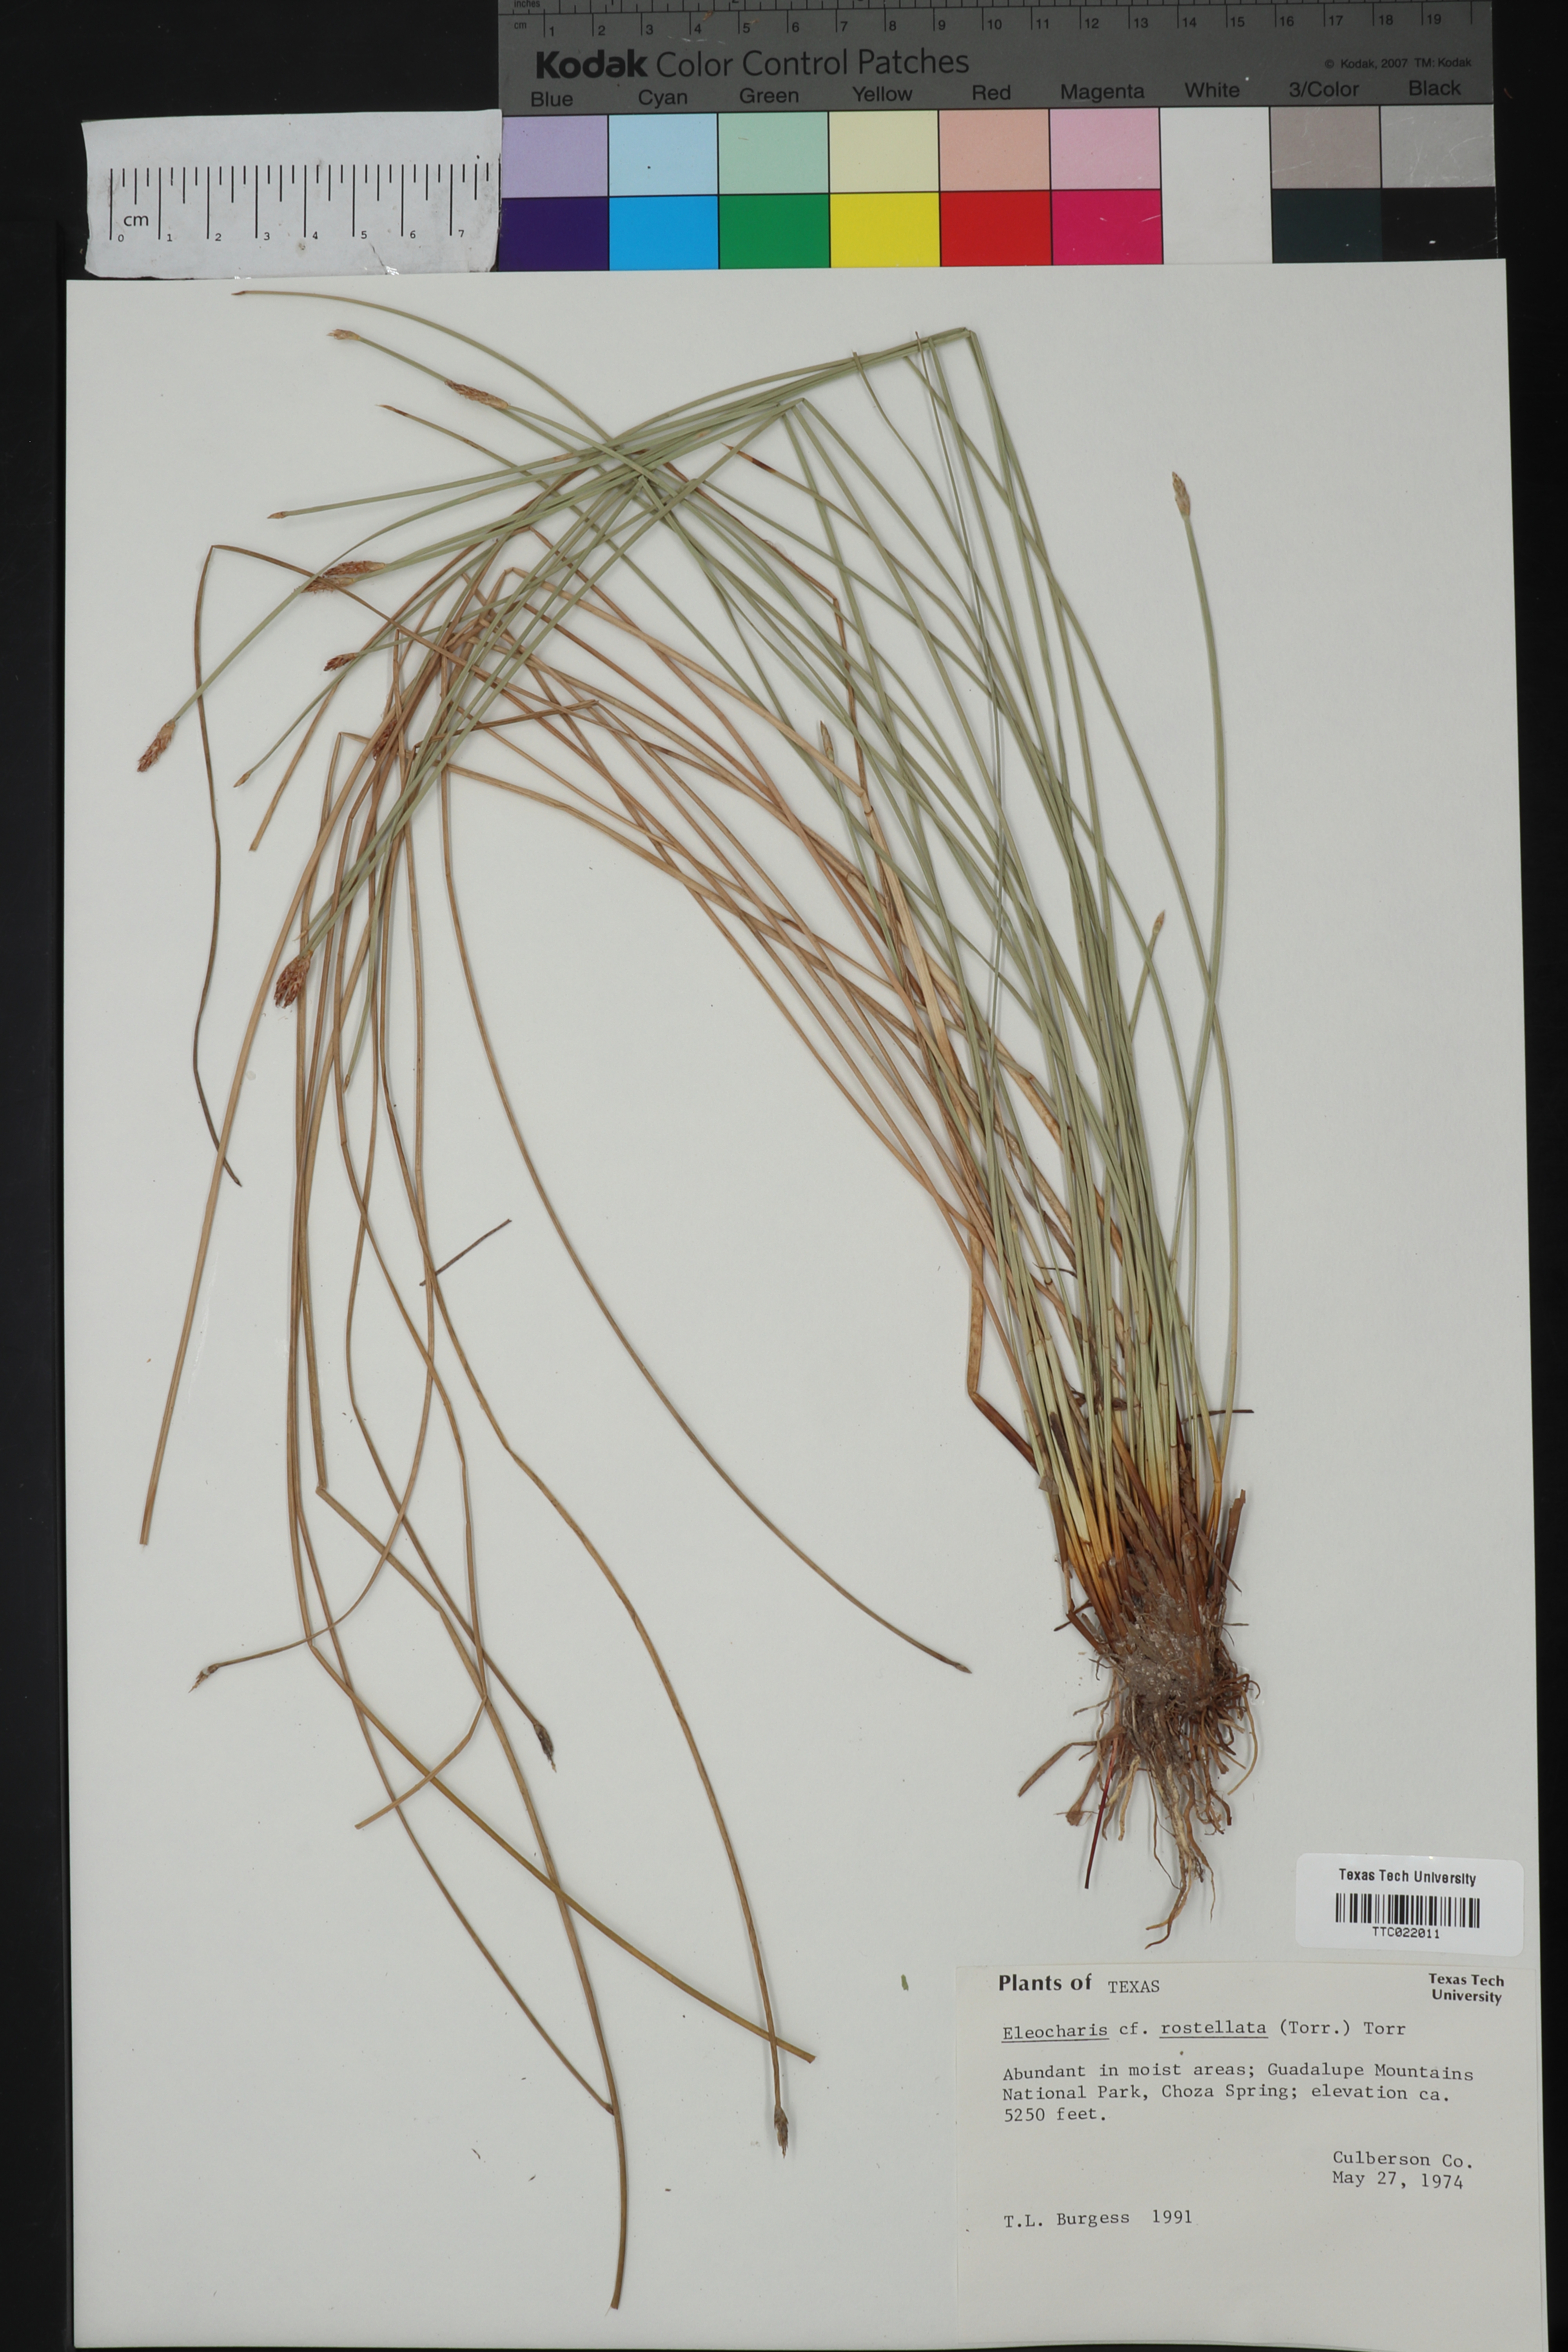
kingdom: Plantae
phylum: Tracheophyta
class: Liliopsida
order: Poales
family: Cyperaceae
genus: Eleocharis
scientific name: Eleocharis rostellata
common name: Walking sedge
